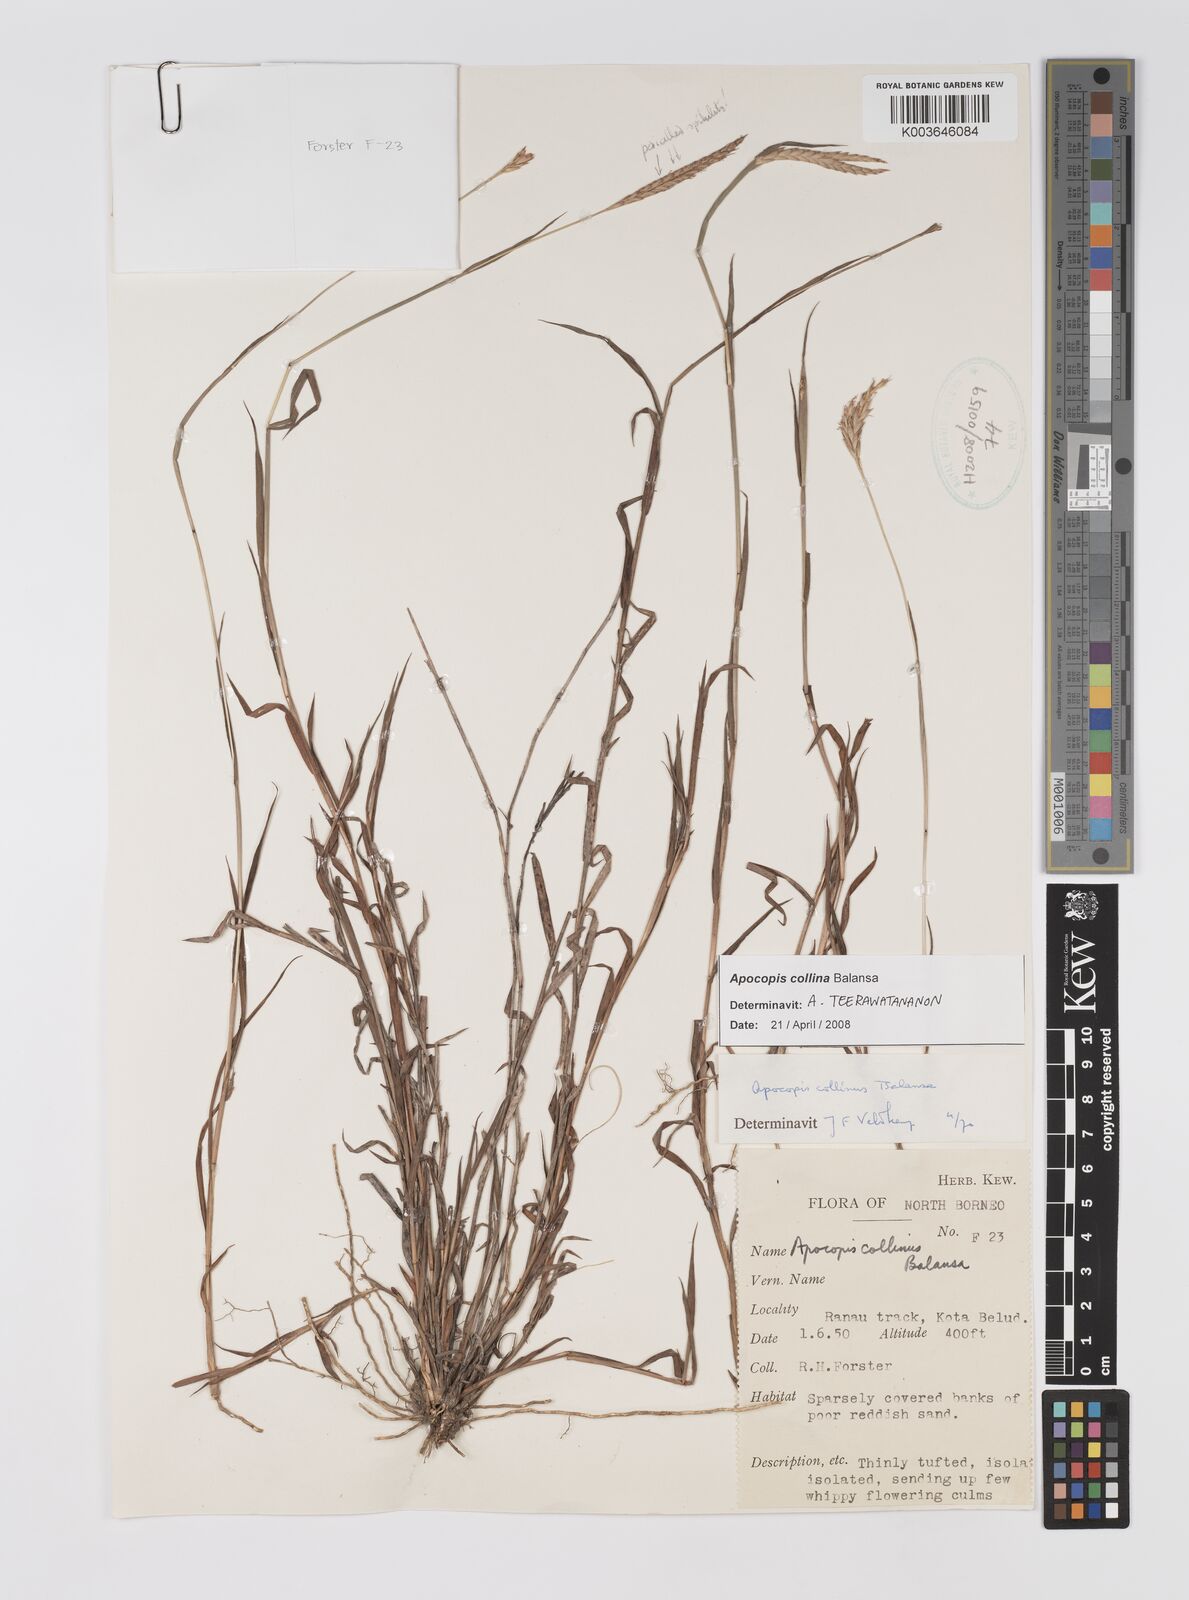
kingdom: Plantae
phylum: Tracheophyta
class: Liliopsida
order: Poales
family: Poaceae
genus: Apocopis
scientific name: Apocopis collinus
